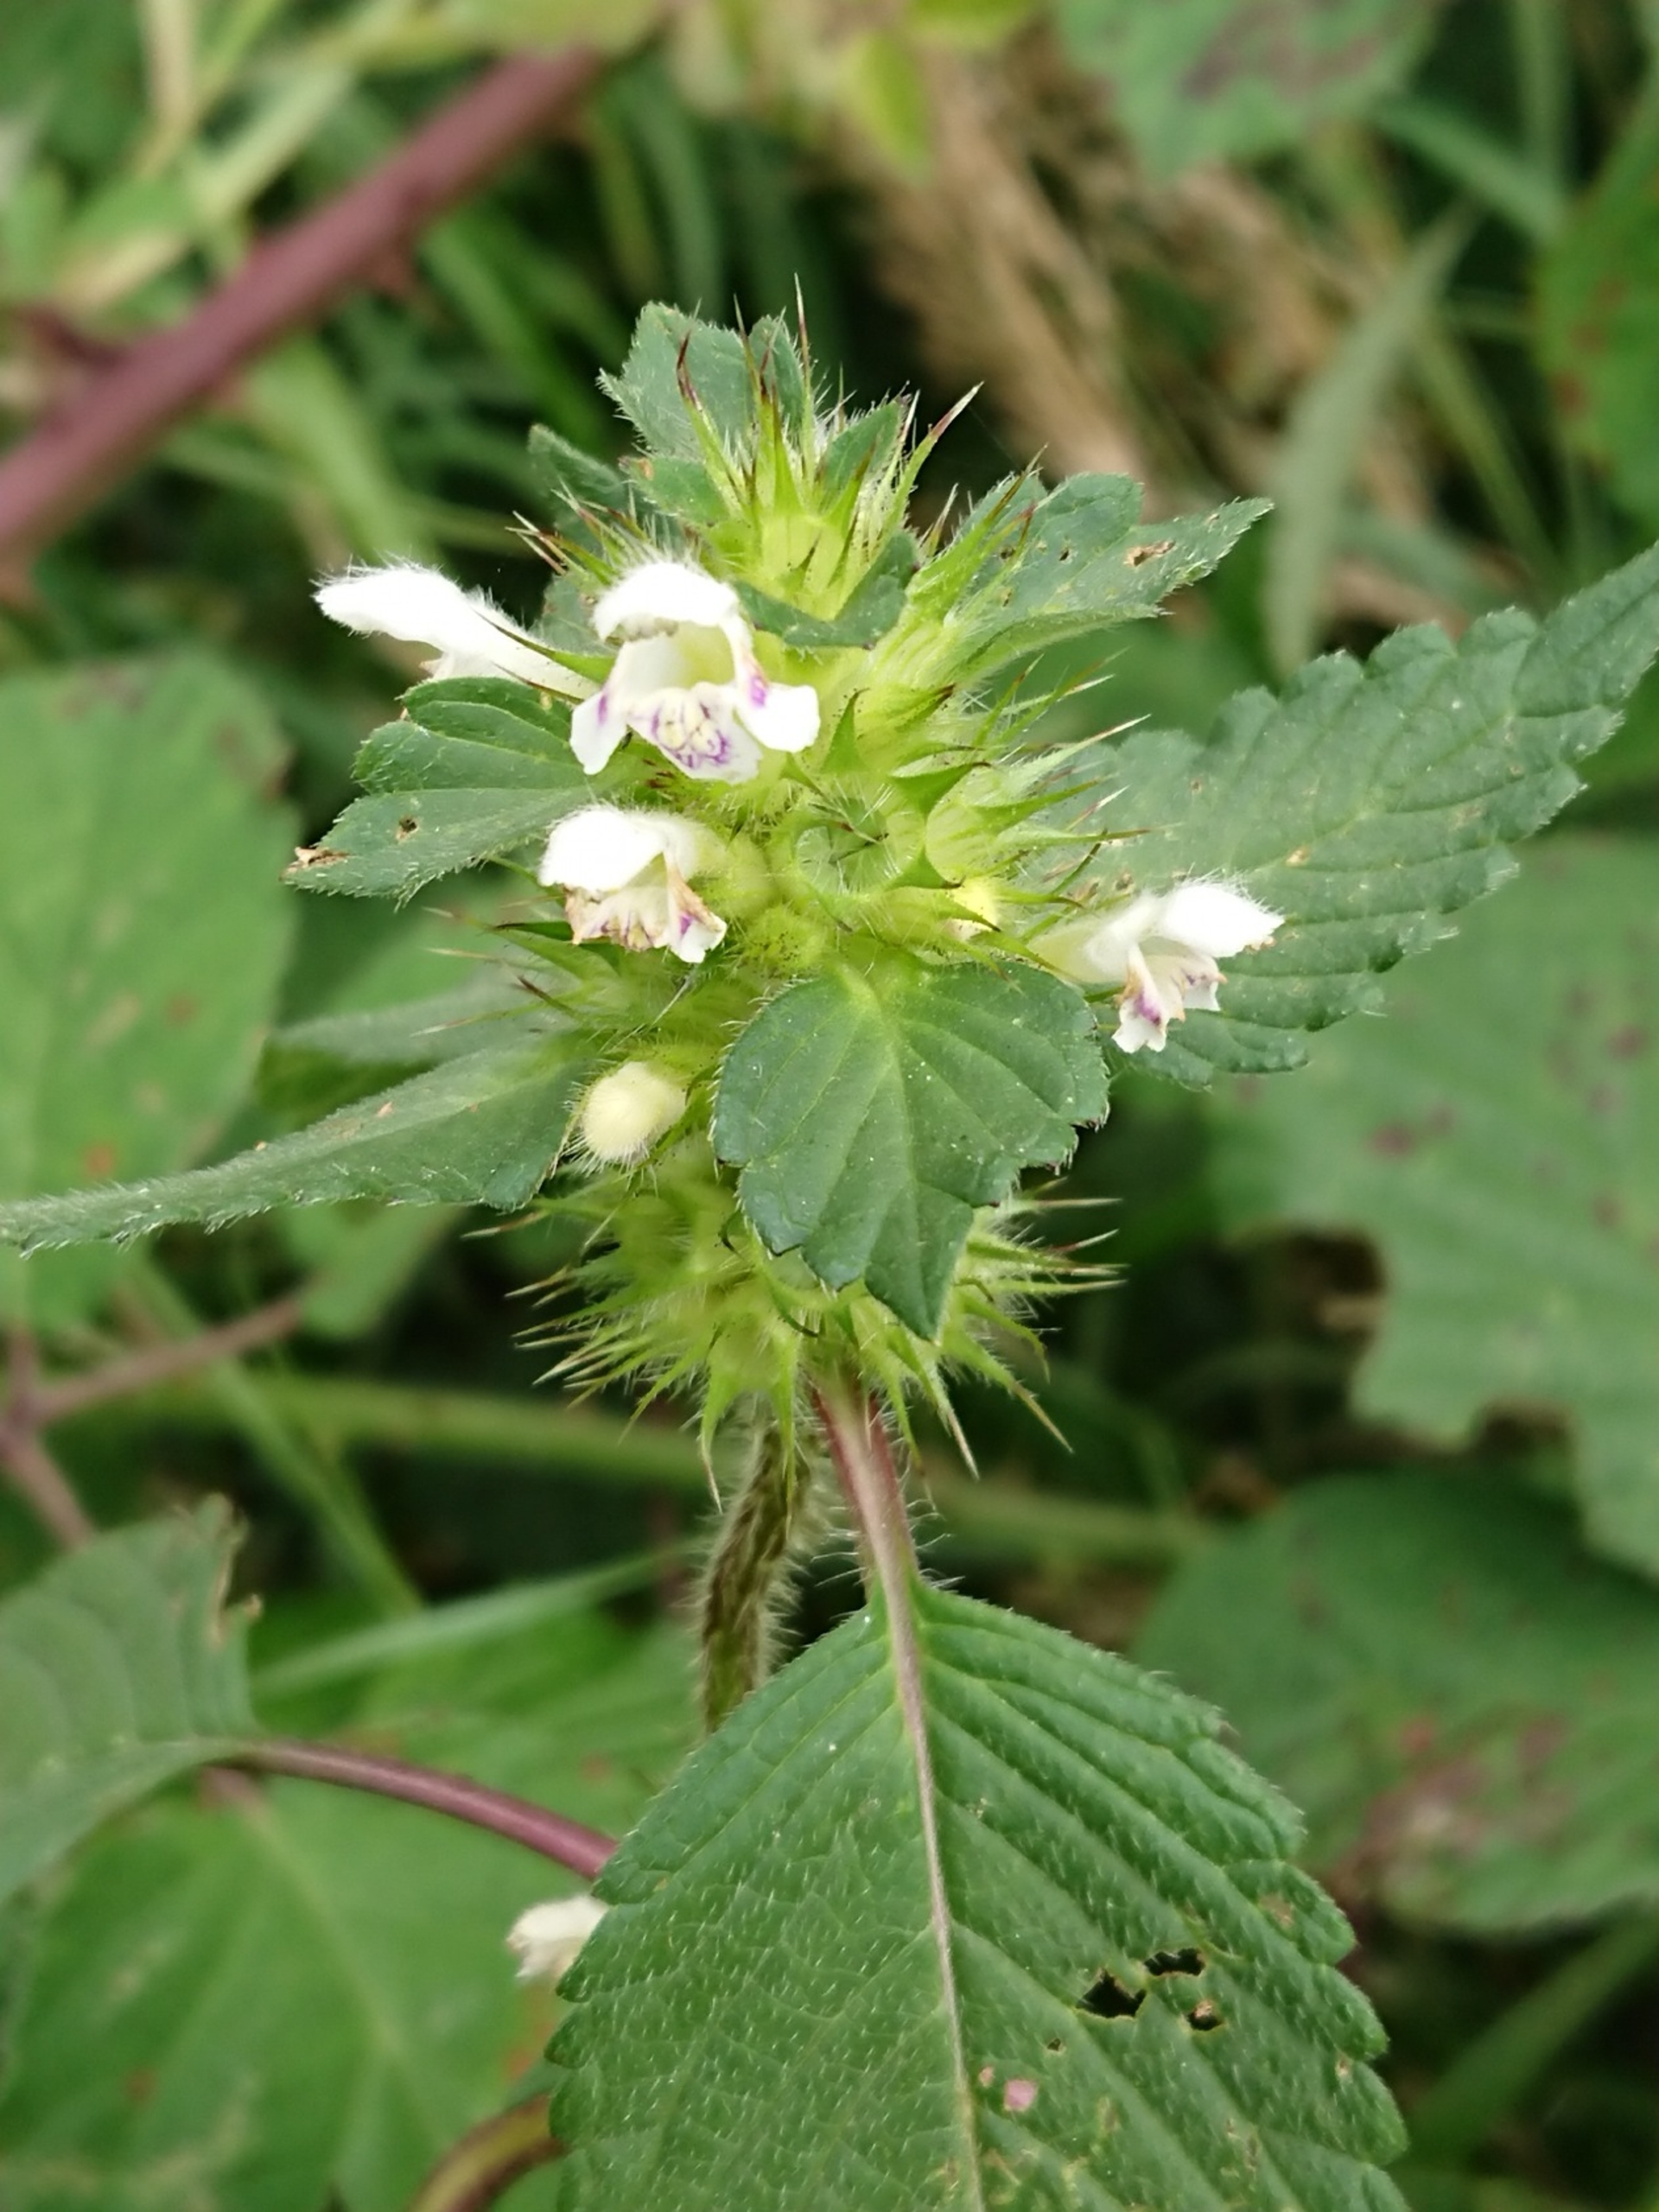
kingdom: Plantae
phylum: Tracheophyta
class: Magnoliopsida
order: Lamiales
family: Lamiaceae
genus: Galeopsis
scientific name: Galeopsis tetrahit
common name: Almindelig hanekro
